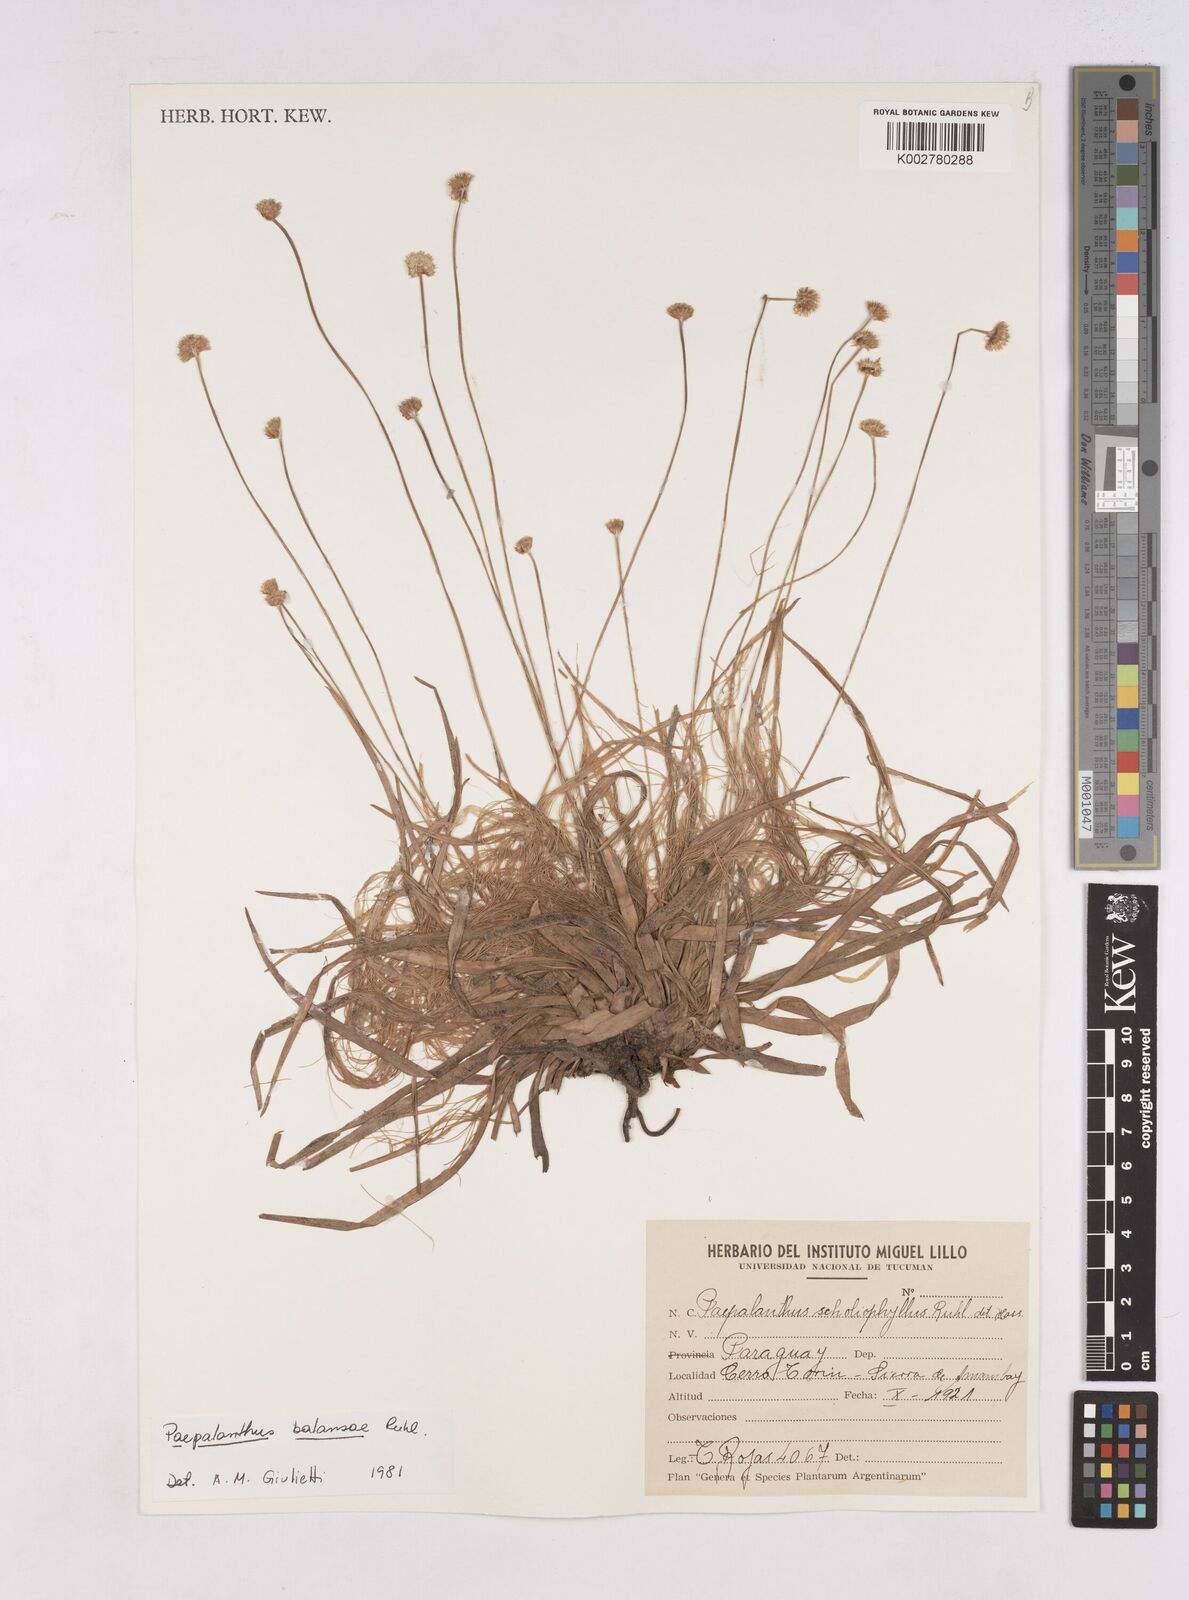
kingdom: Plantae
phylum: Tracheophyta
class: Liliopsida
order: Poales
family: Eriocaulaceae
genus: Paepalanthus
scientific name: Paepalanthus balansae
